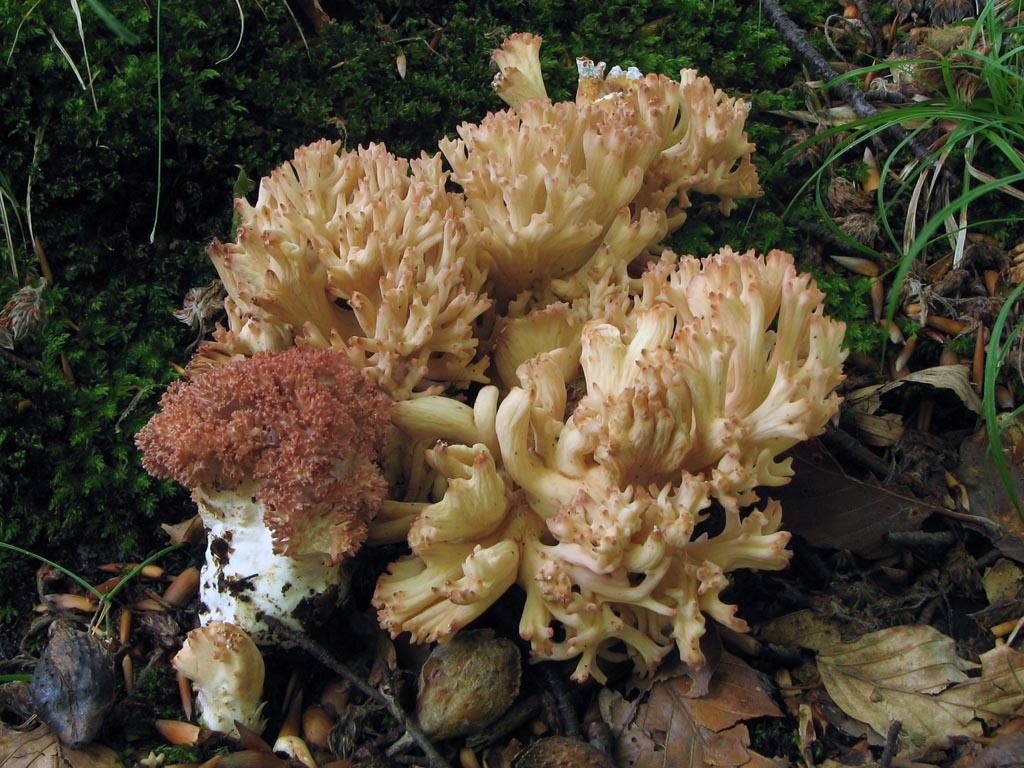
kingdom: Fungi
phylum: Basidiomycota
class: Agaricomycetes
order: Gomphales
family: Gomphaceae
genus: Ramaria
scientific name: Ramaria botrytis
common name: drue-koralsvamp
